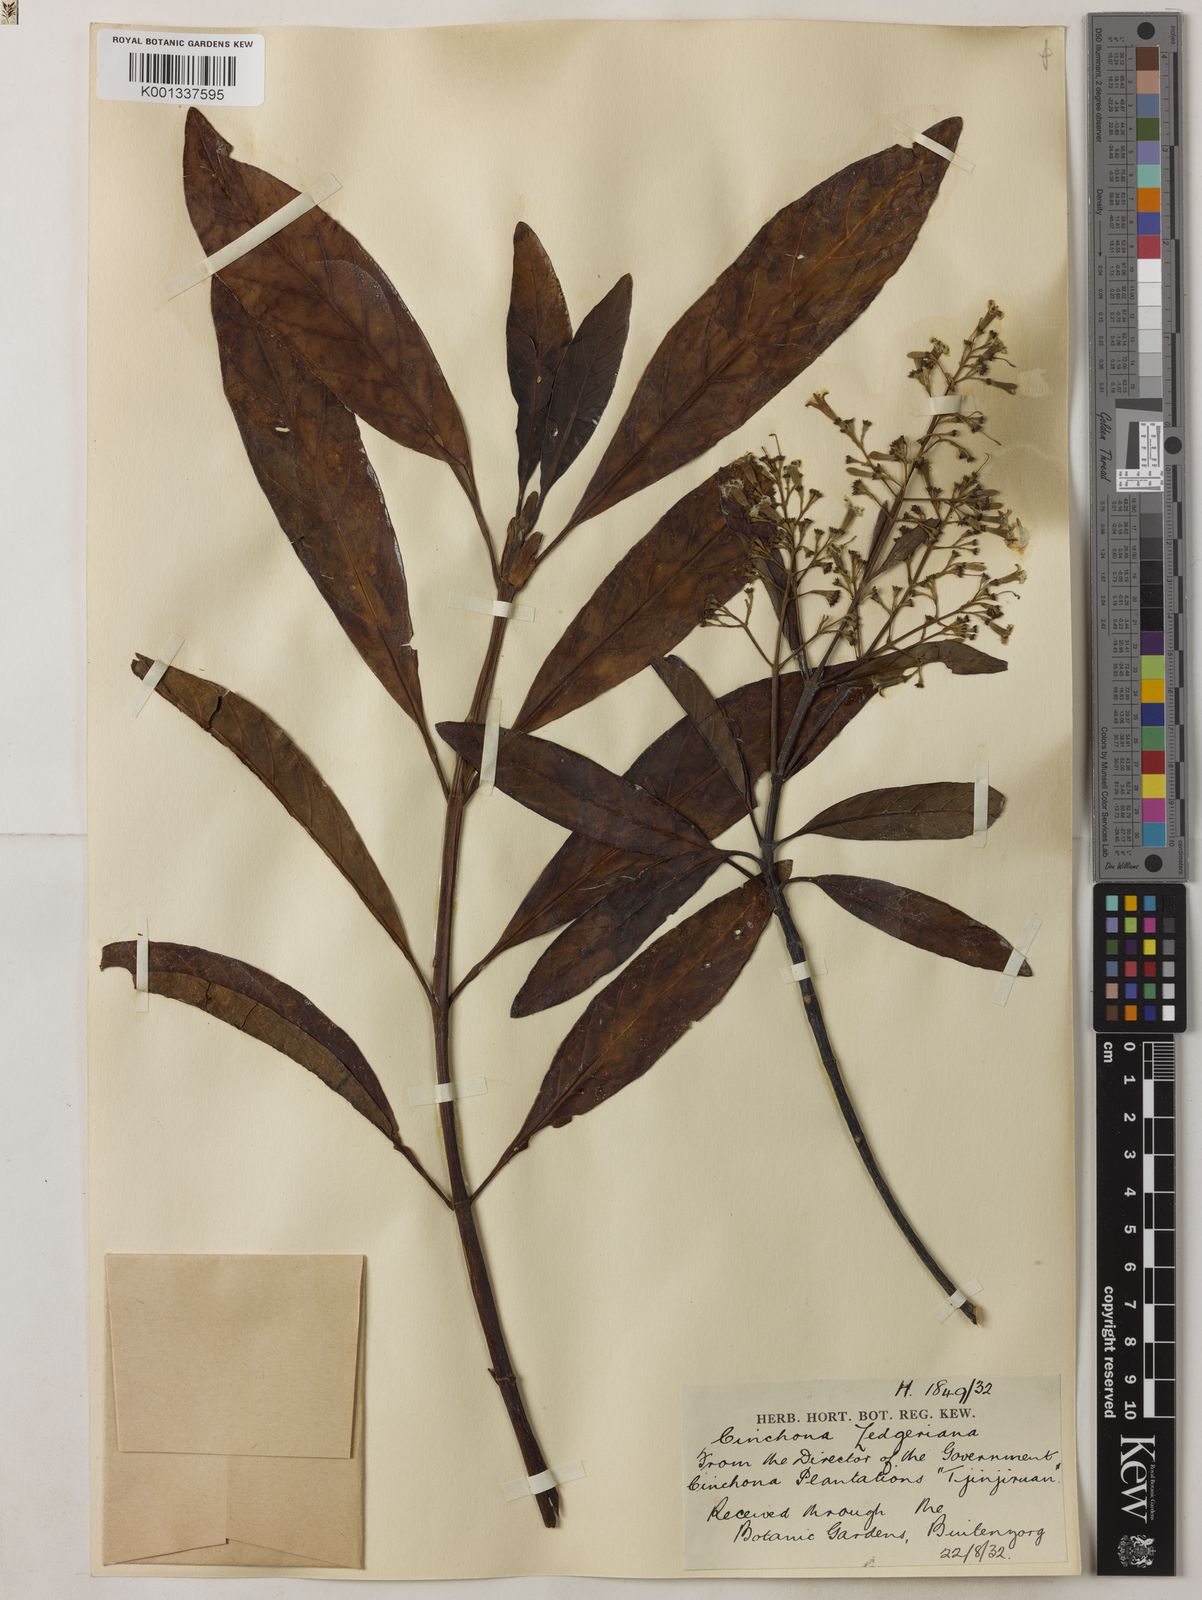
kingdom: Plantae
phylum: Tracheophyta
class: Magnoliopsida
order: Gentianales
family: Rubiaceae
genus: Cinchona
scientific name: Cinchona calisaya
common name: Ledgerbark
